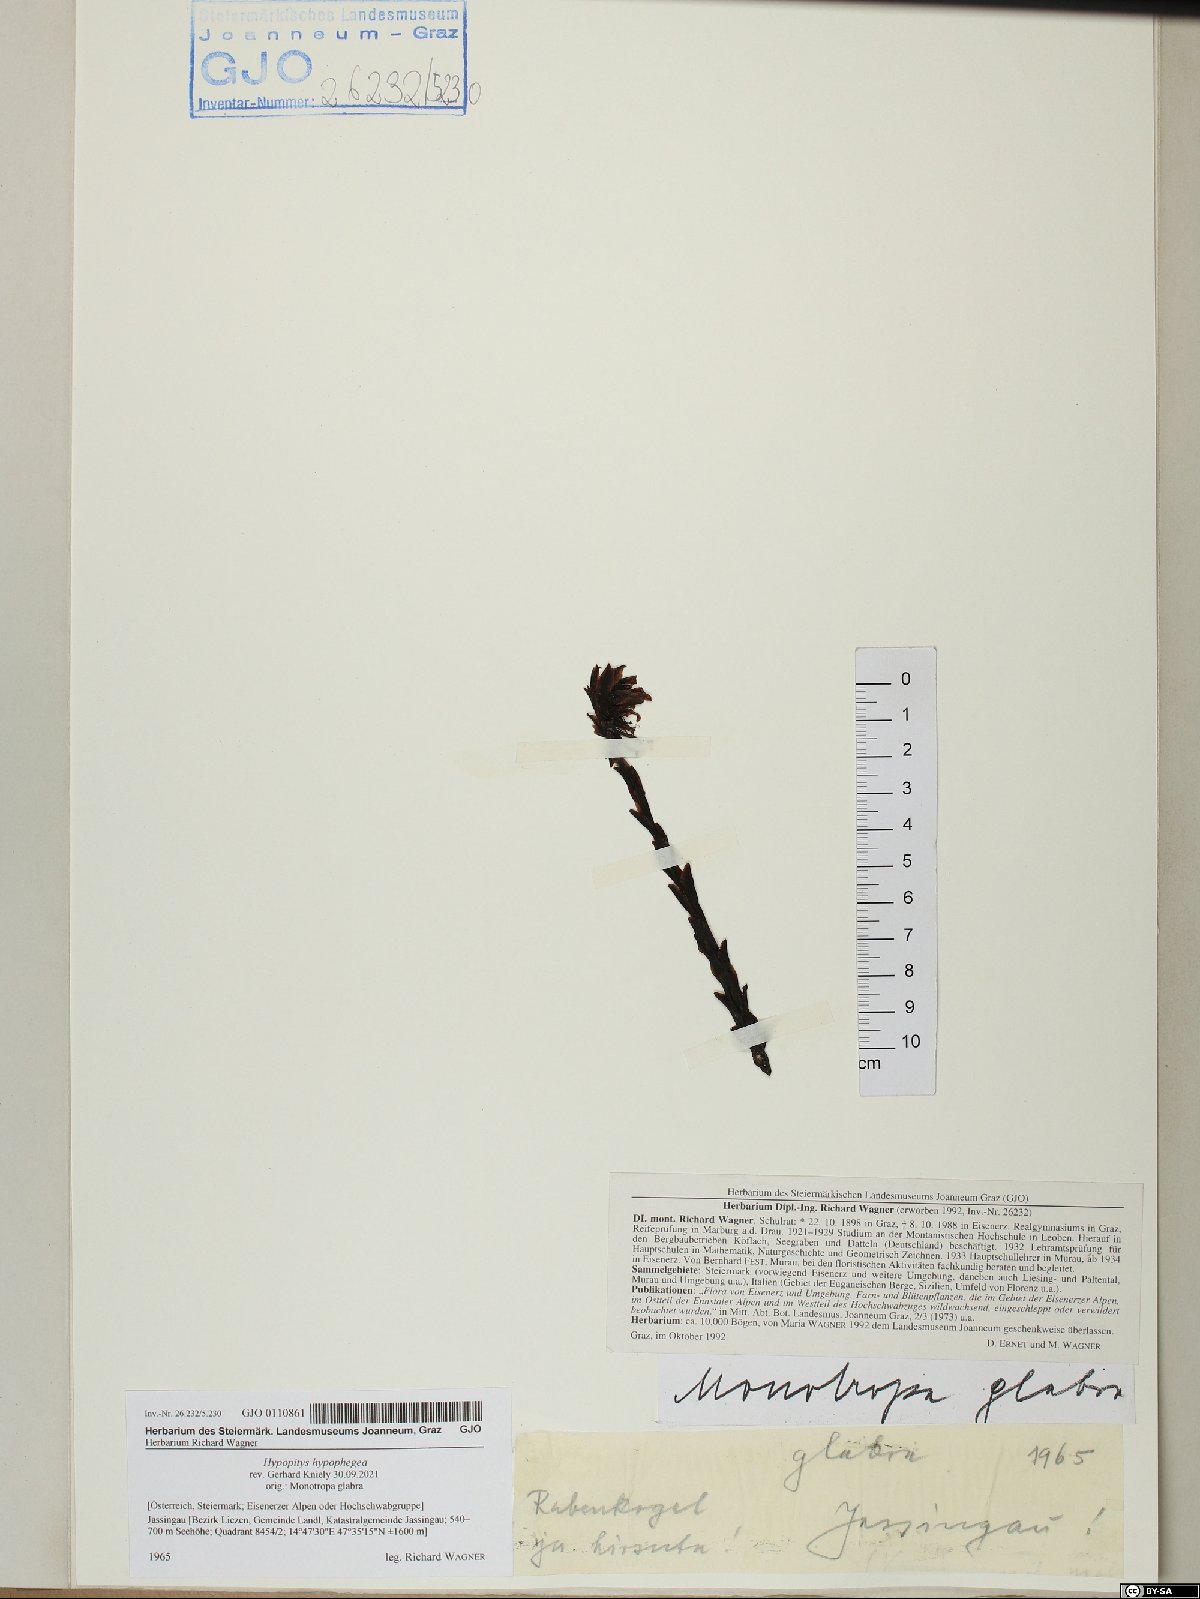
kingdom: Plantae
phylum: Tracheophyta
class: Magnoliopsida
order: Ericales
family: Ericaceae
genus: Hypopitys
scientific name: Hypopitys hypophegea
